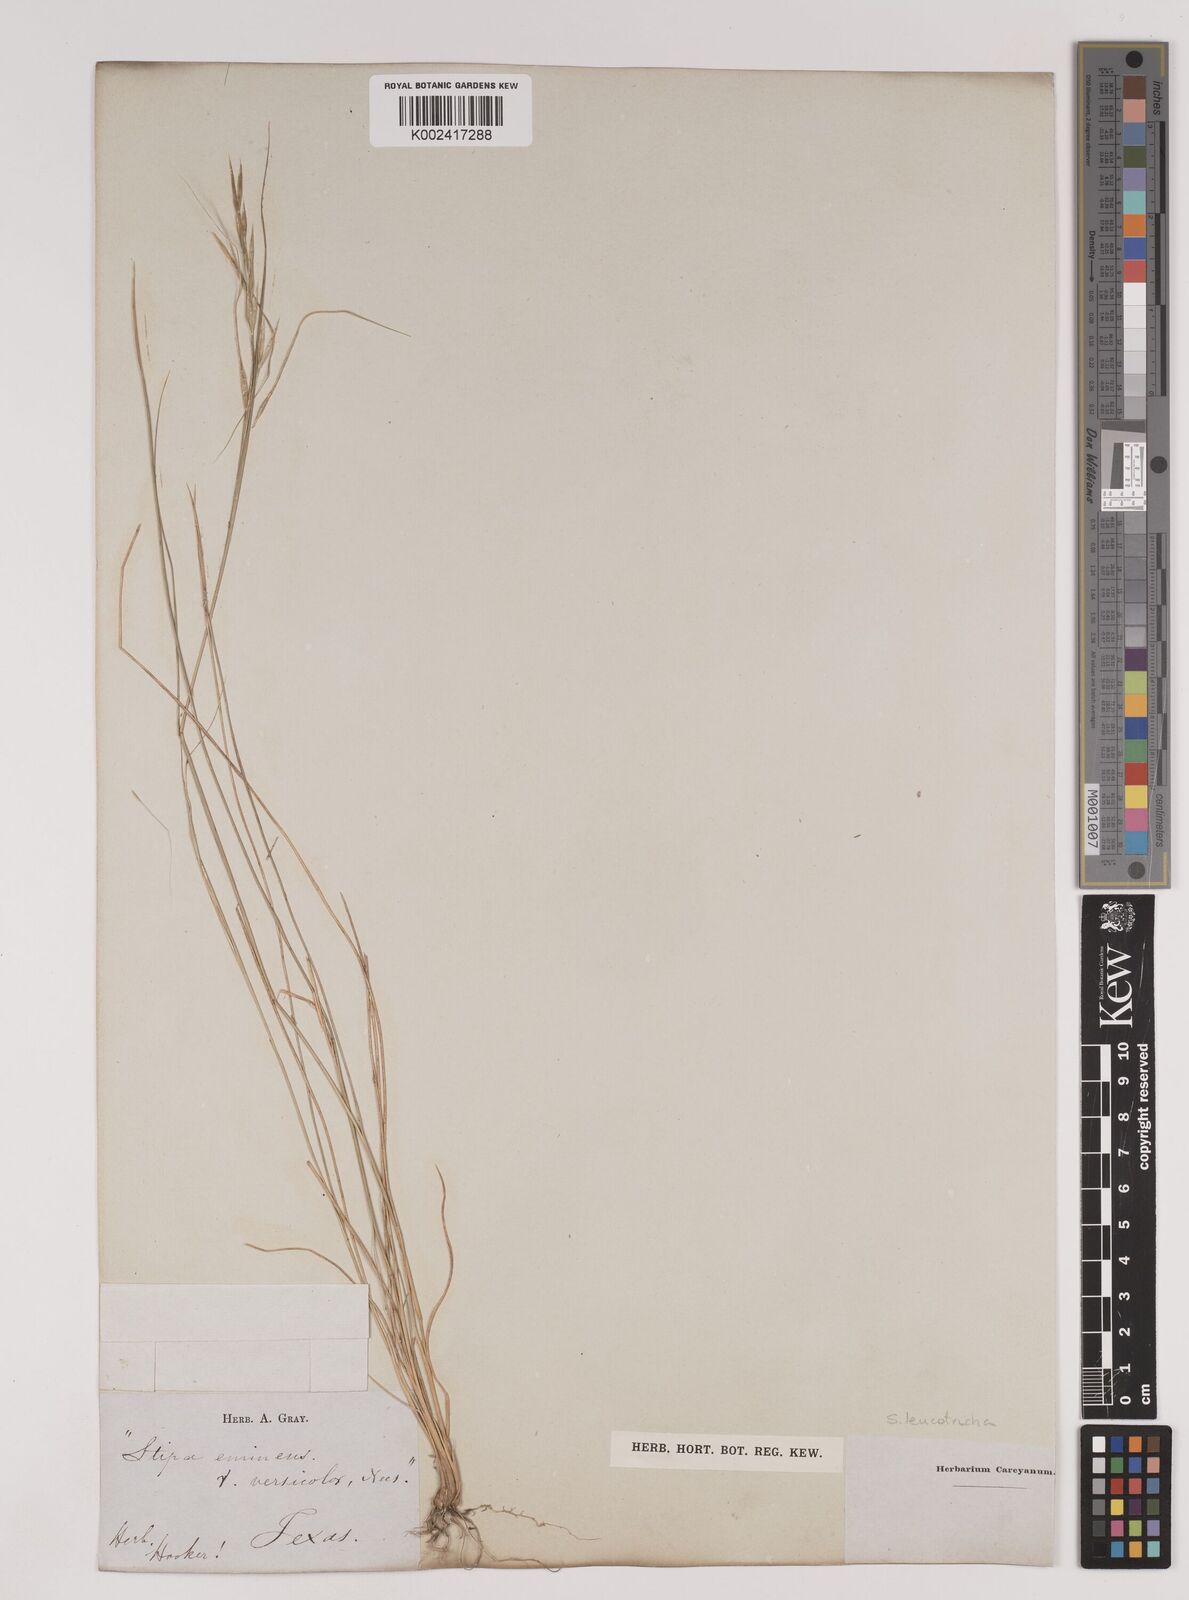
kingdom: Plantae
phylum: Tracheophyta
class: Liliopsida
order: Poales
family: Poaceae
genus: Nassella
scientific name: Nassella leucotricha
